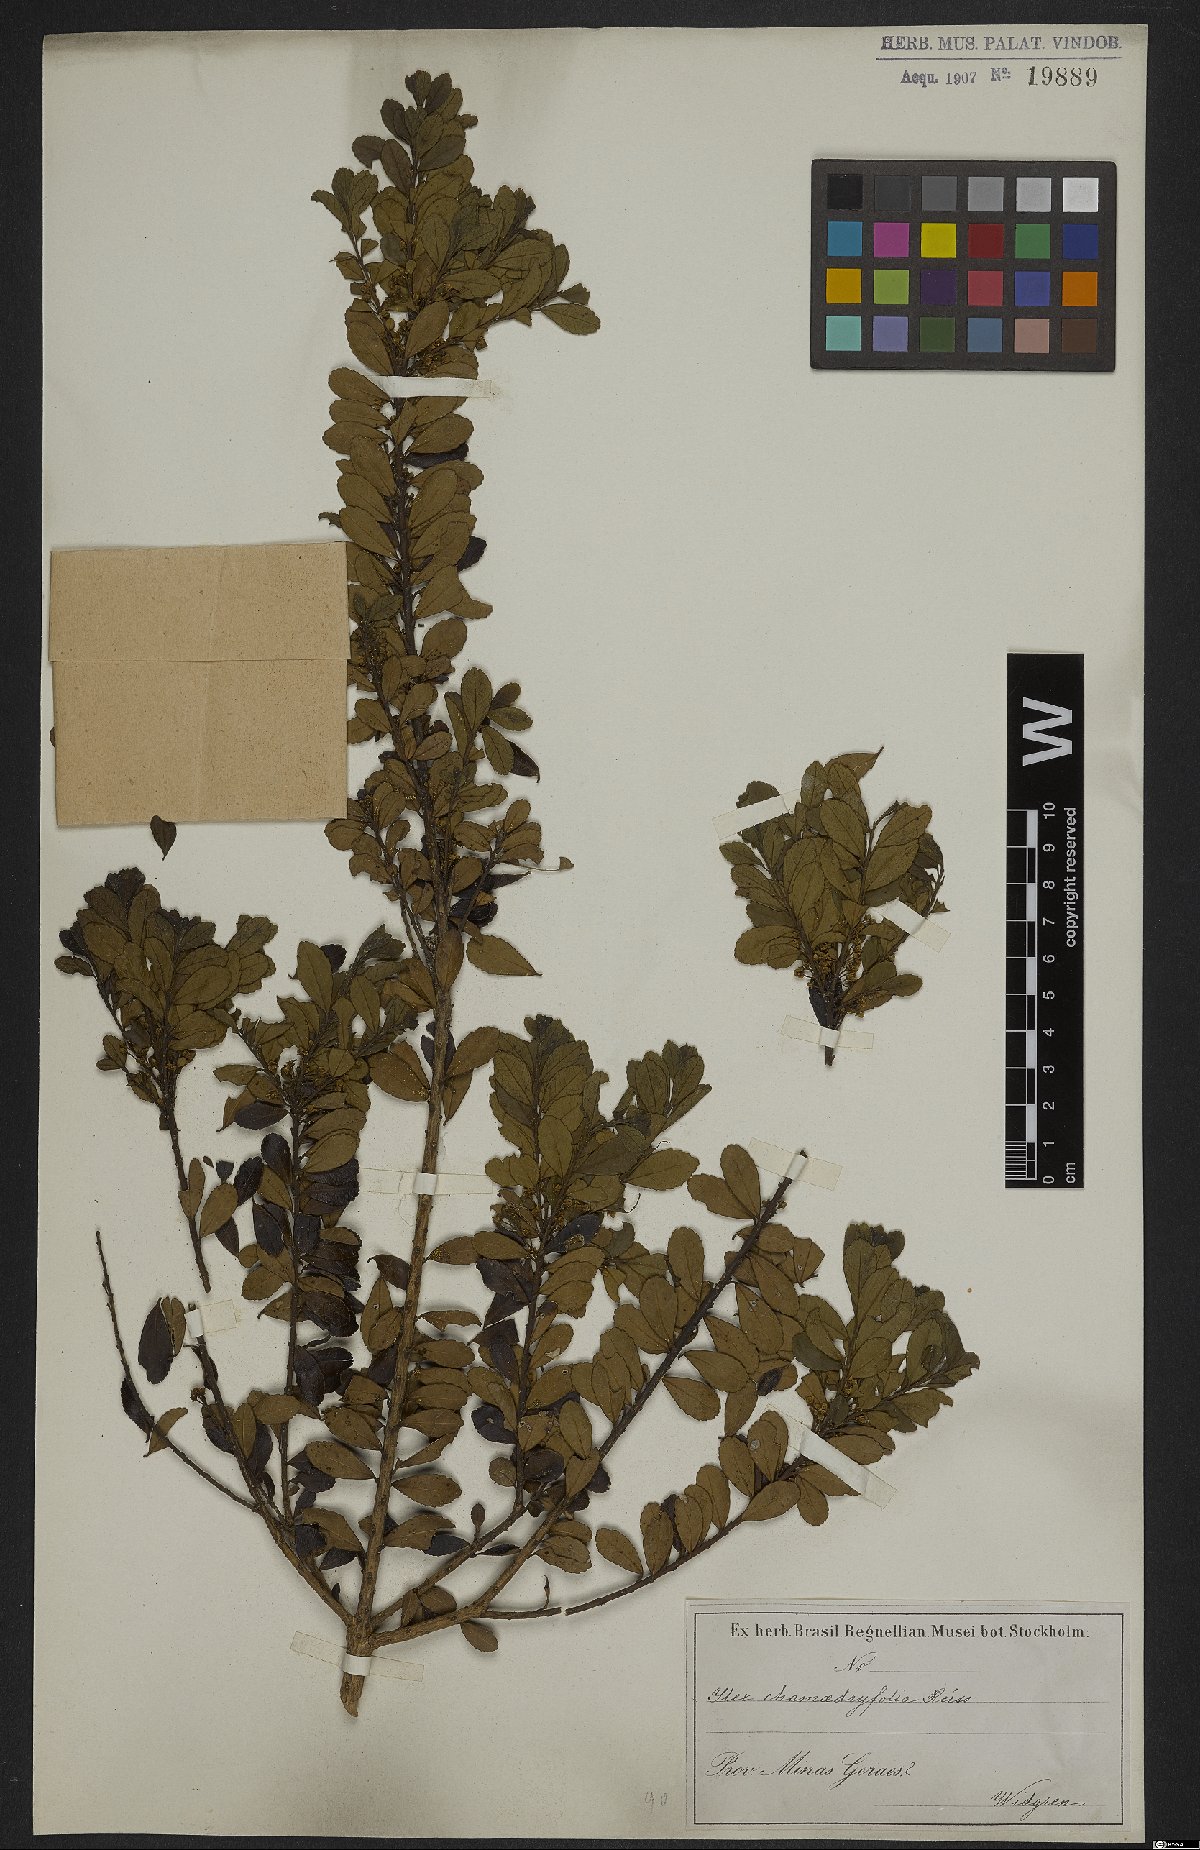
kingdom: Plantae
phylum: Tracheophyta
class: Magnoliopsida
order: Aquifoliales
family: Aquifoliaceae
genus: Ilex
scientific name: Ilex chamaedryfolia
